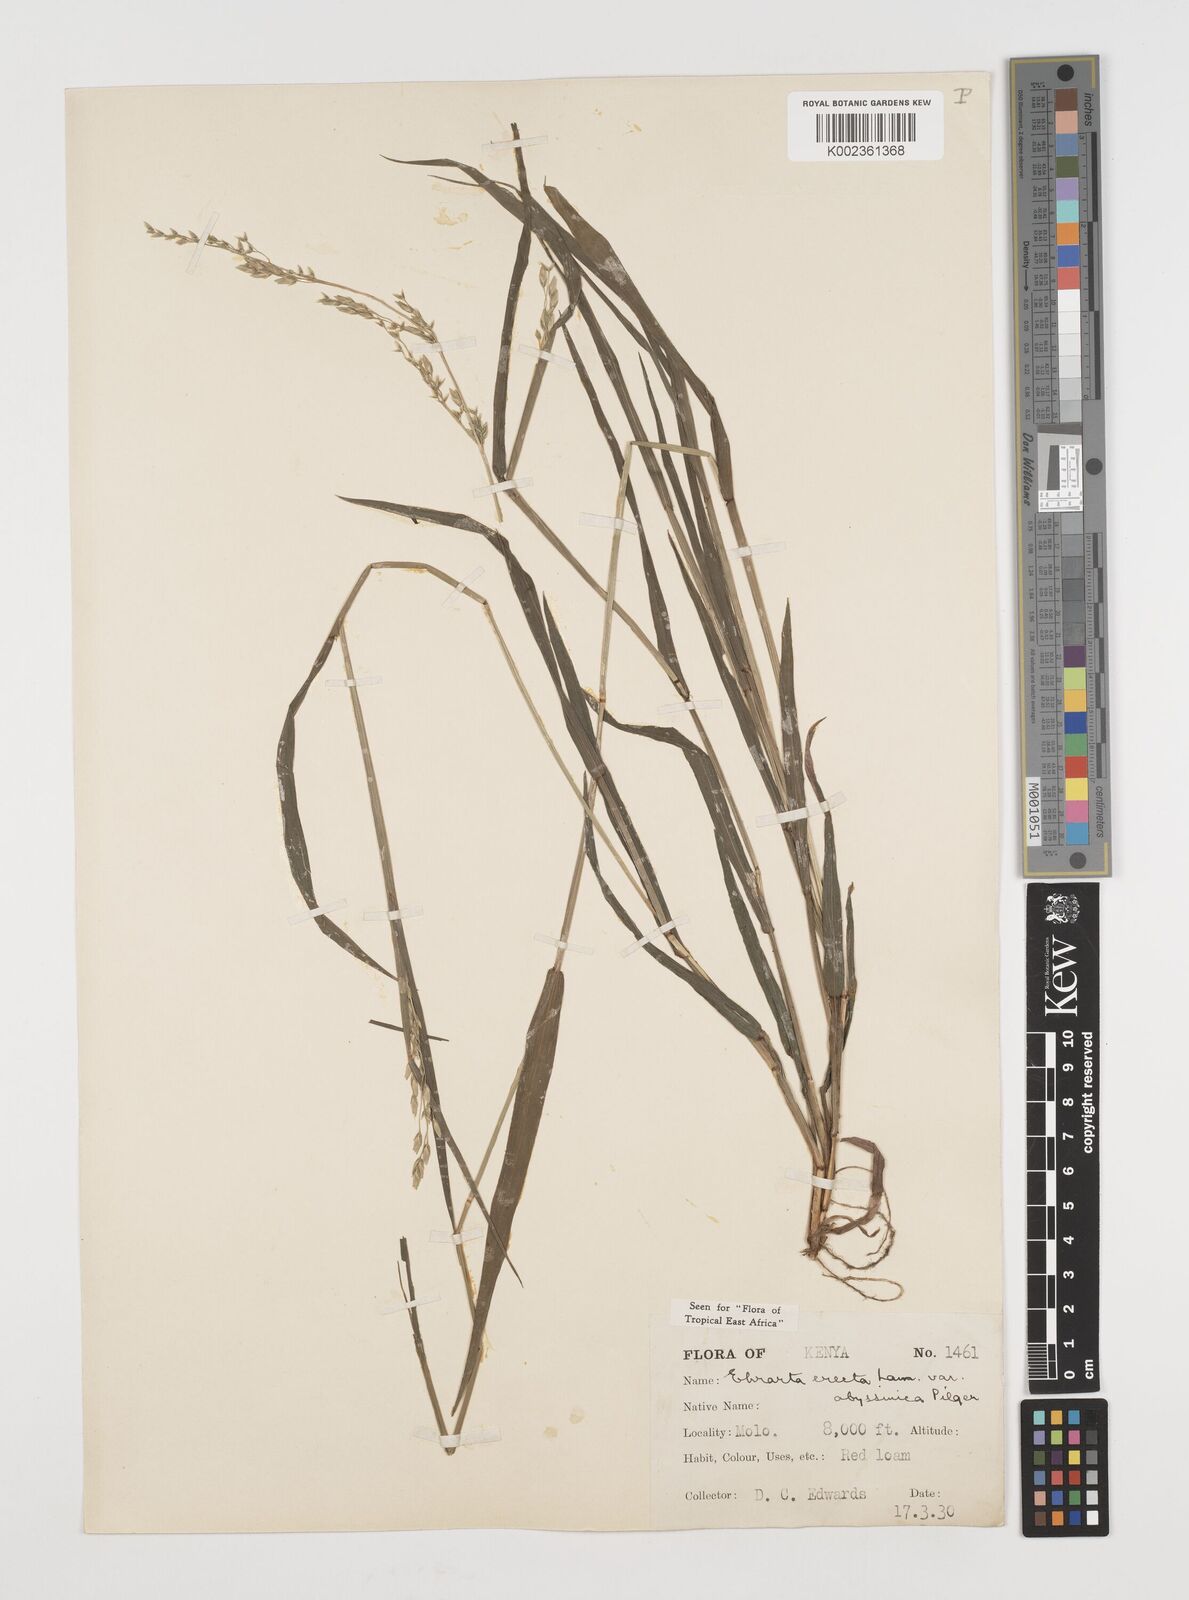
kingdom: Plantae
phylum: Tracheophyta
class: Liliopsida
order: Poales
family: Poaceae
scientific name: Poaceae
